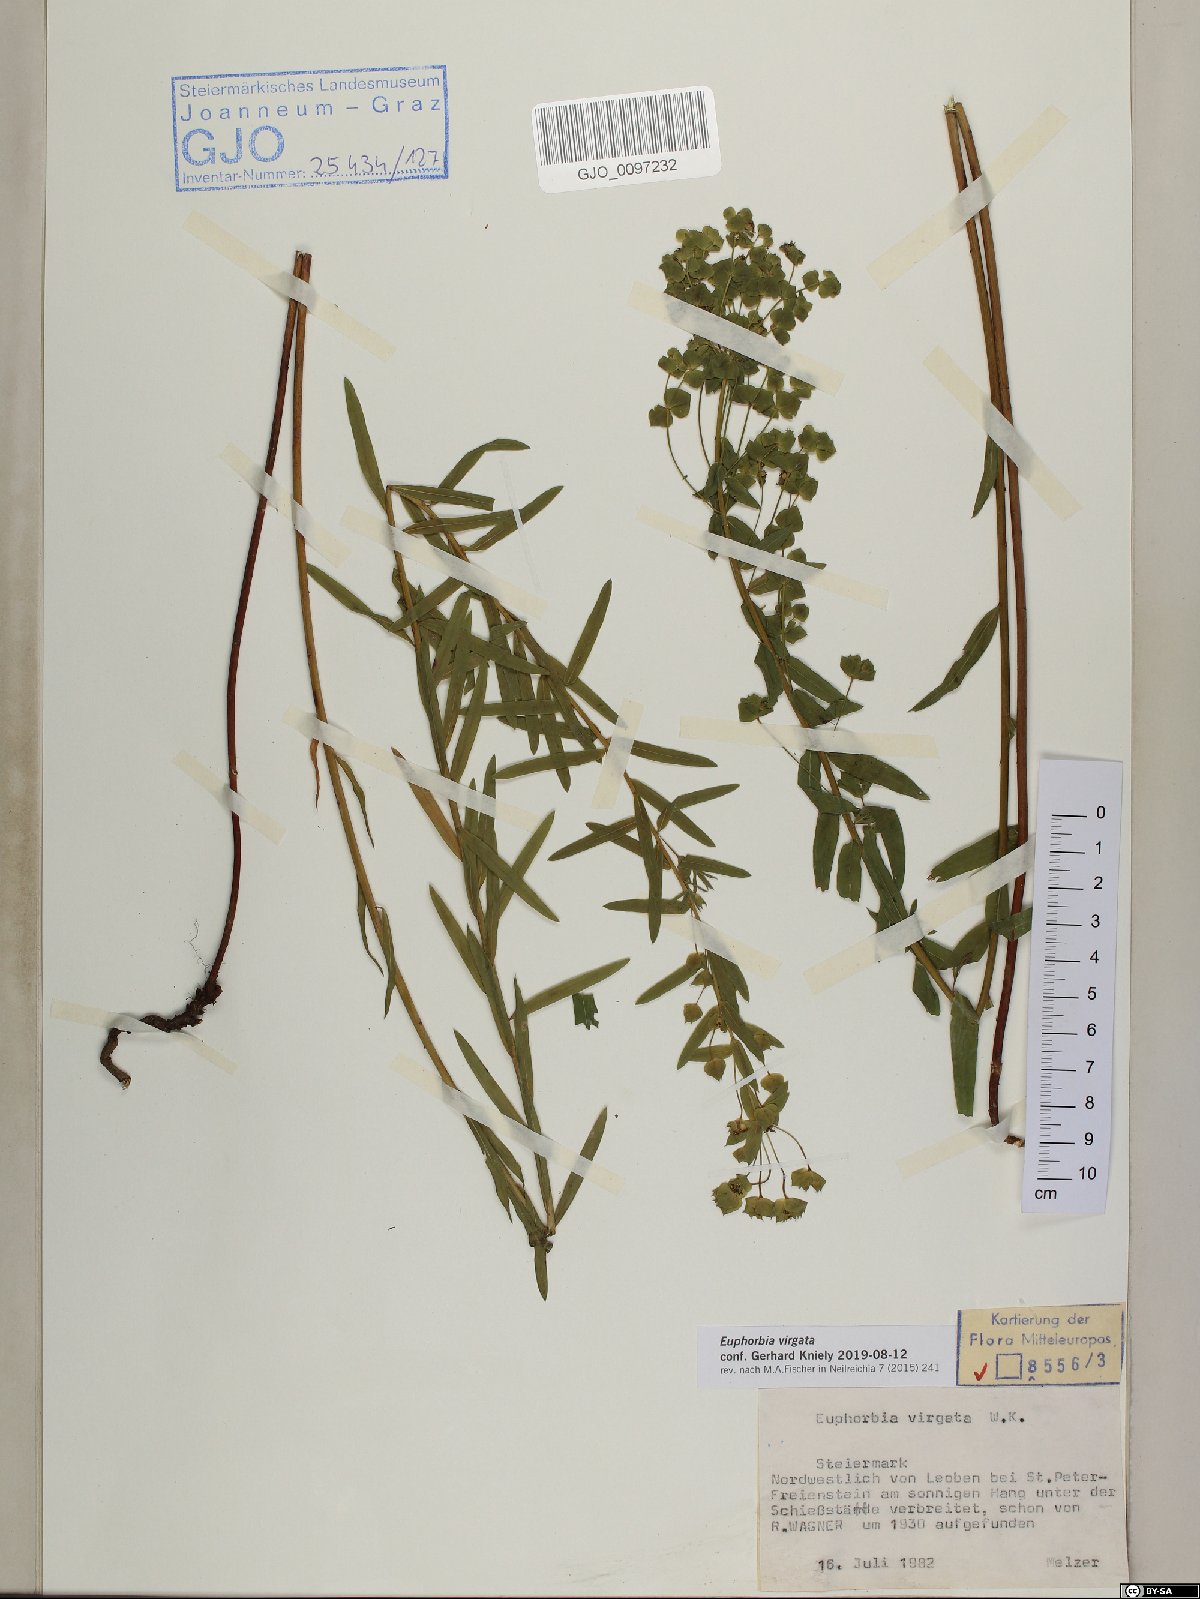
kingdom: Plantae
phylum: Tracheophyta
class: Magnoliopsida
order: Malpighiales
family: Euphorbiaceae
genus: Euphorbia
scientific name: Euphorbia virgata
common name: Leafy spurge
